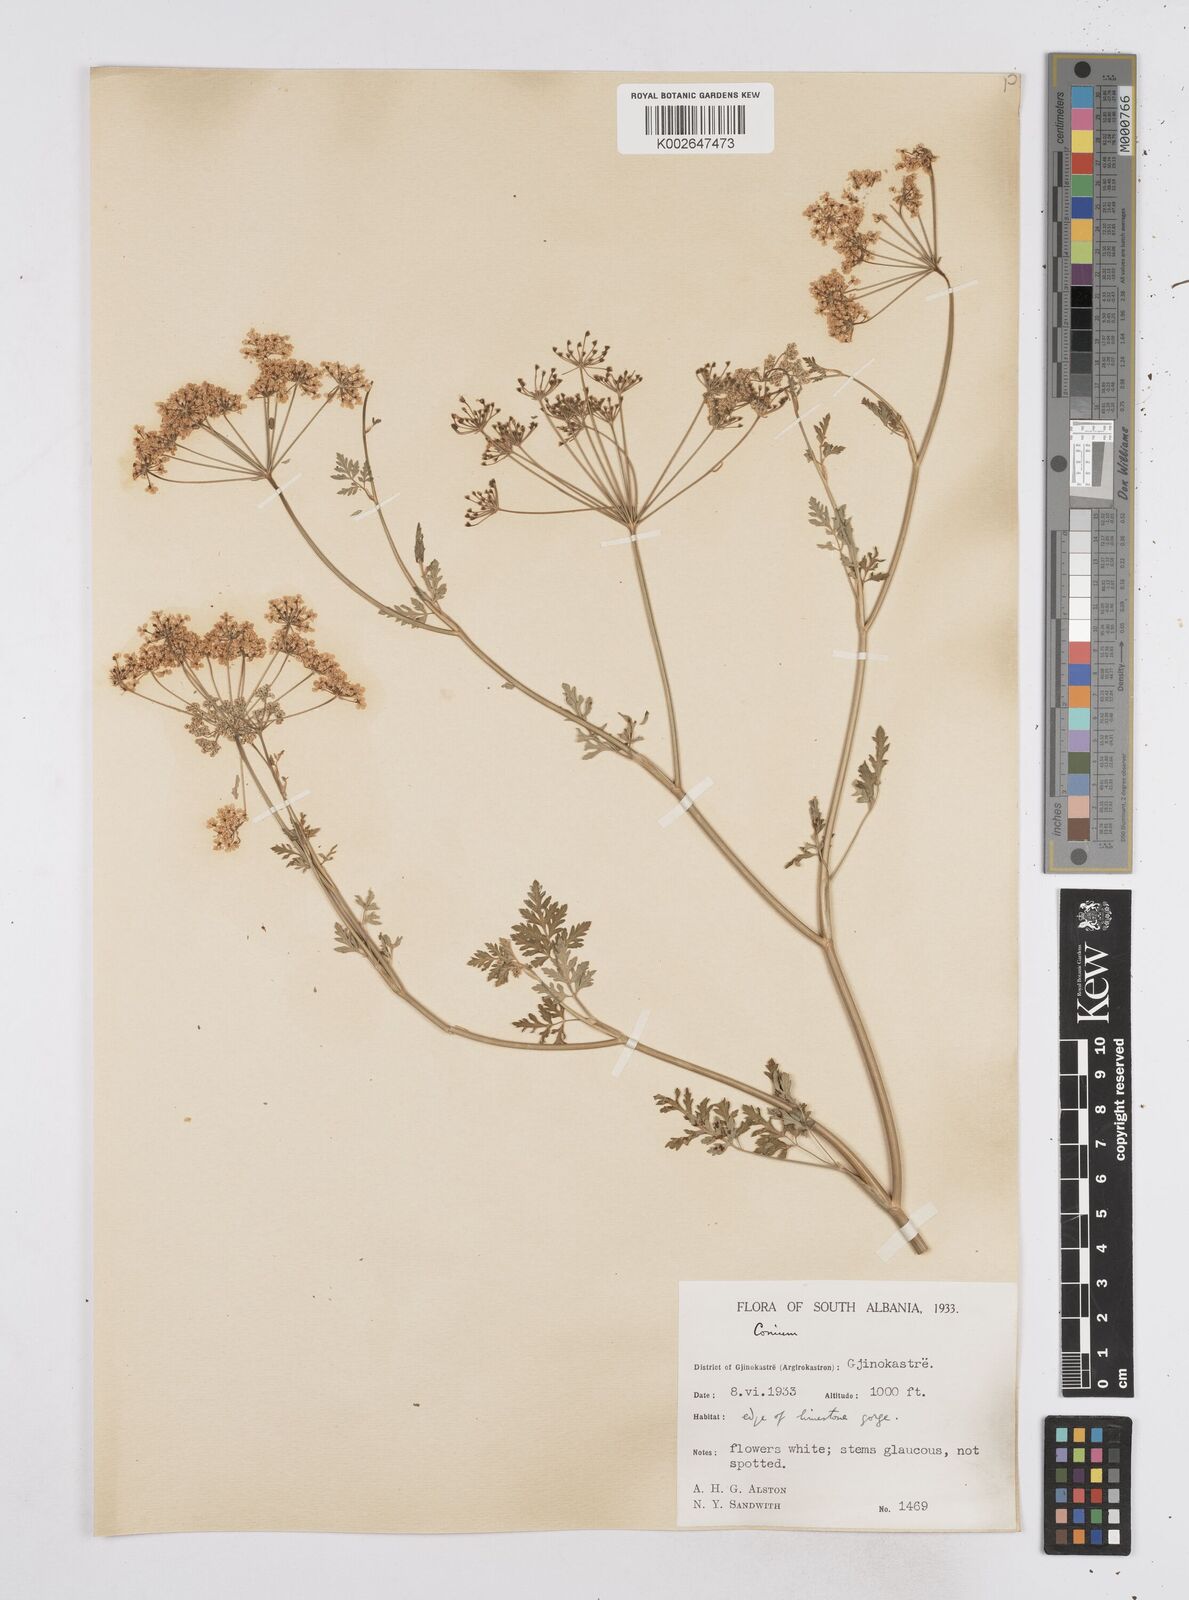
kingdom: Plantae
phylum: Tracheophyta
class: Magnoliopsida
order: Apiales
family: Apiaceae
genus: Conium
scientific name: Conium divaricatum
